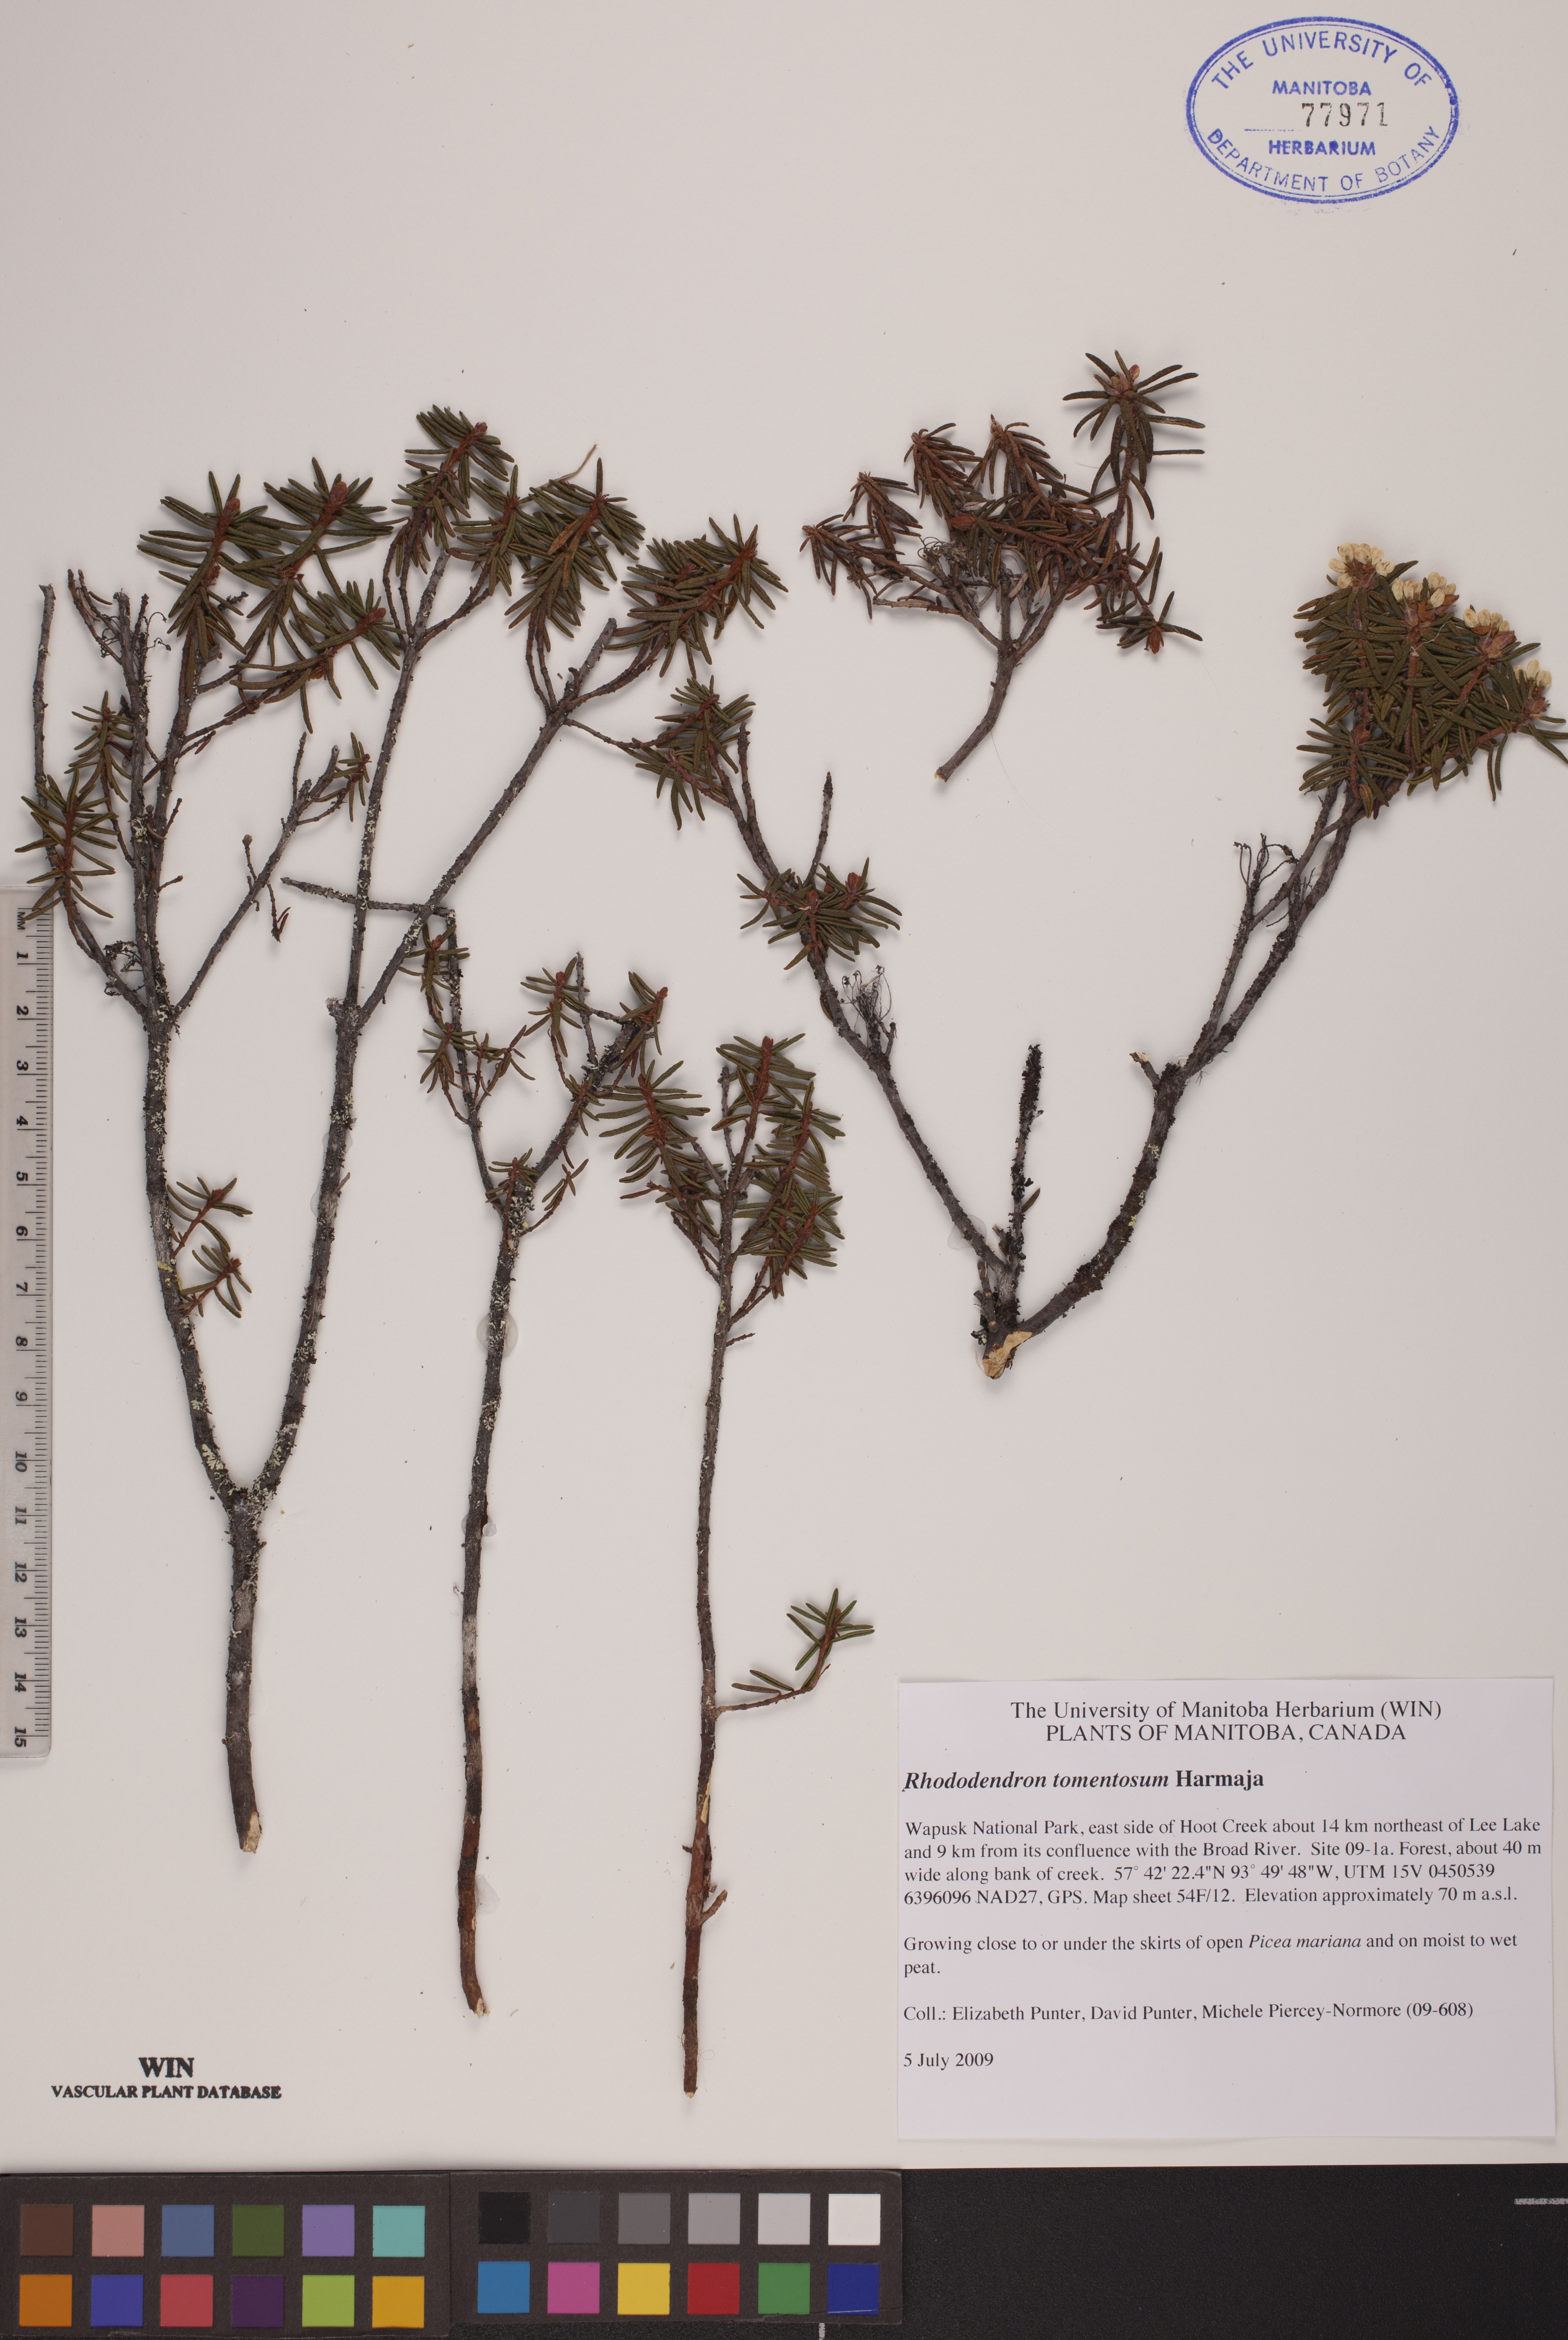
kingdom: Plantae
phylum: Tracheophyta
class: Magnoliopsida
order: Ericales
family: Ericaceae
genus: Rhododendron
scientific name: Rhododendron tomentosum
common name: Marsh labrador tea
